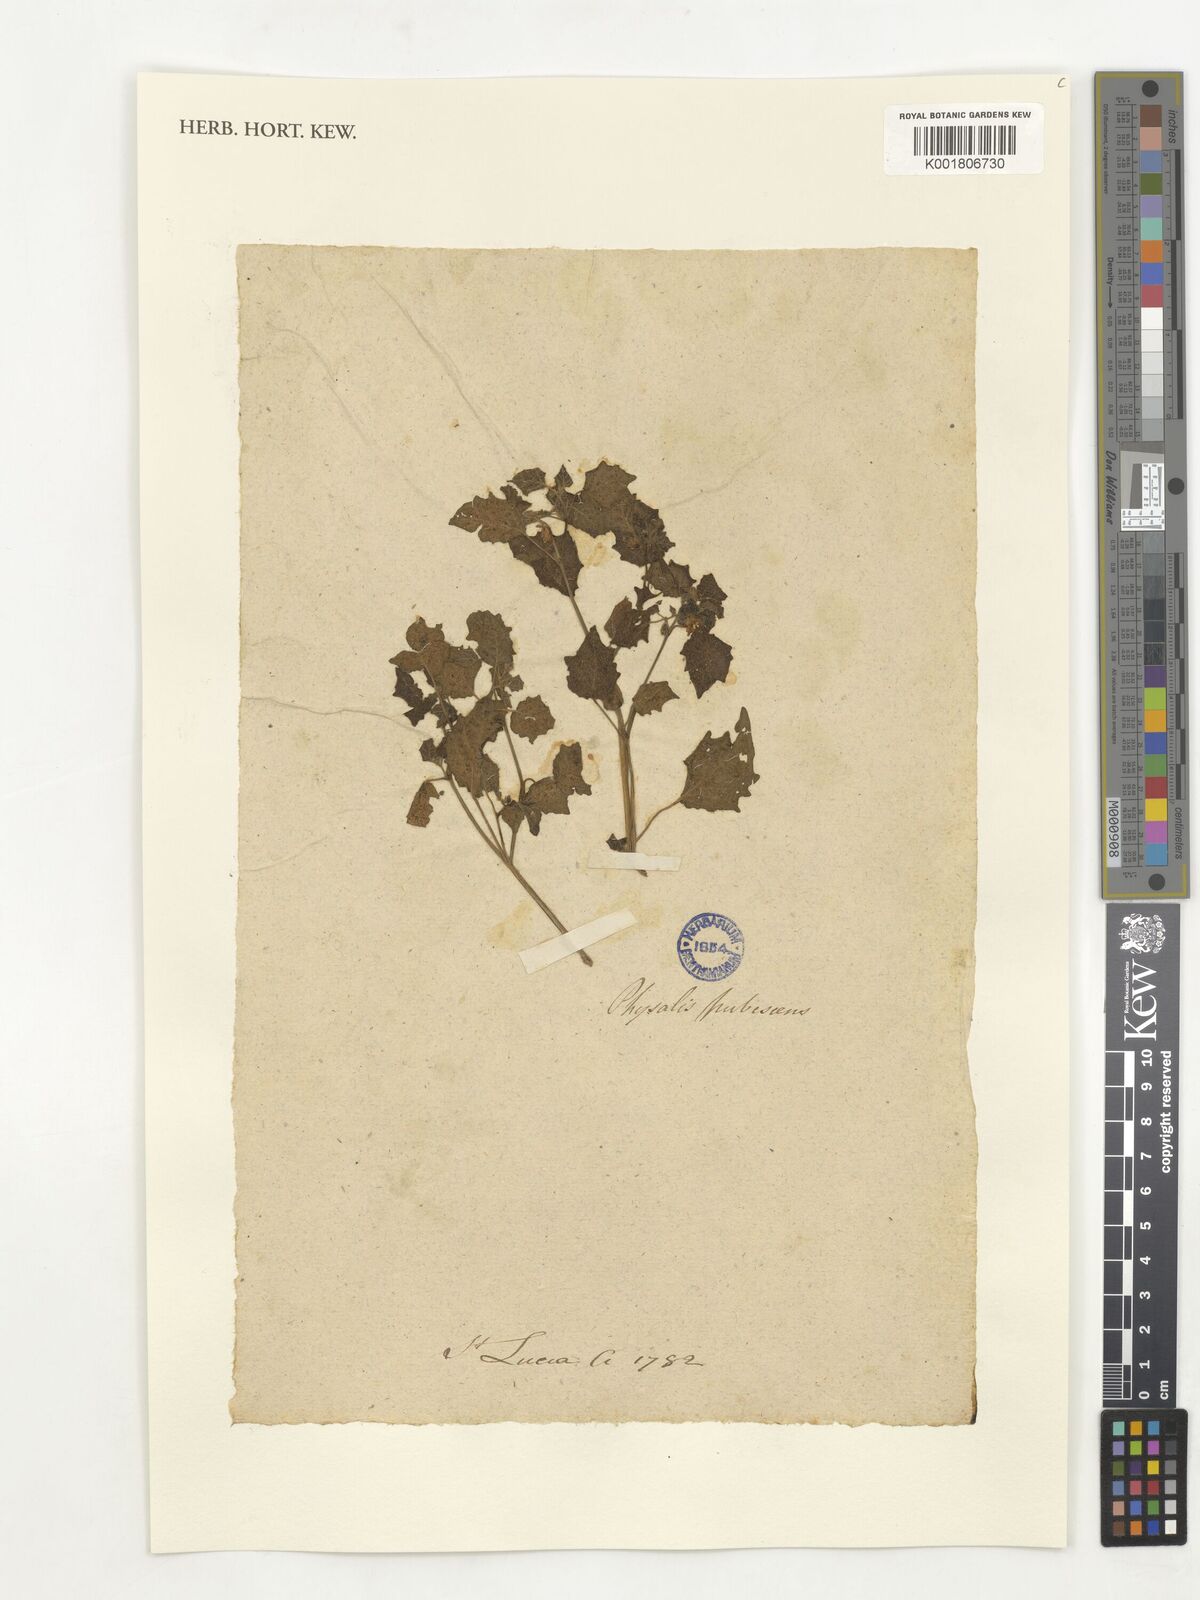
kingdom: Plantae
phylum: Tracheophyta
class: Magnoliopsida
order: Solanales
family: Solanaceae
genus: Physalis
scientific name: Physalis pubescens
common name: Downy ground-cherry
